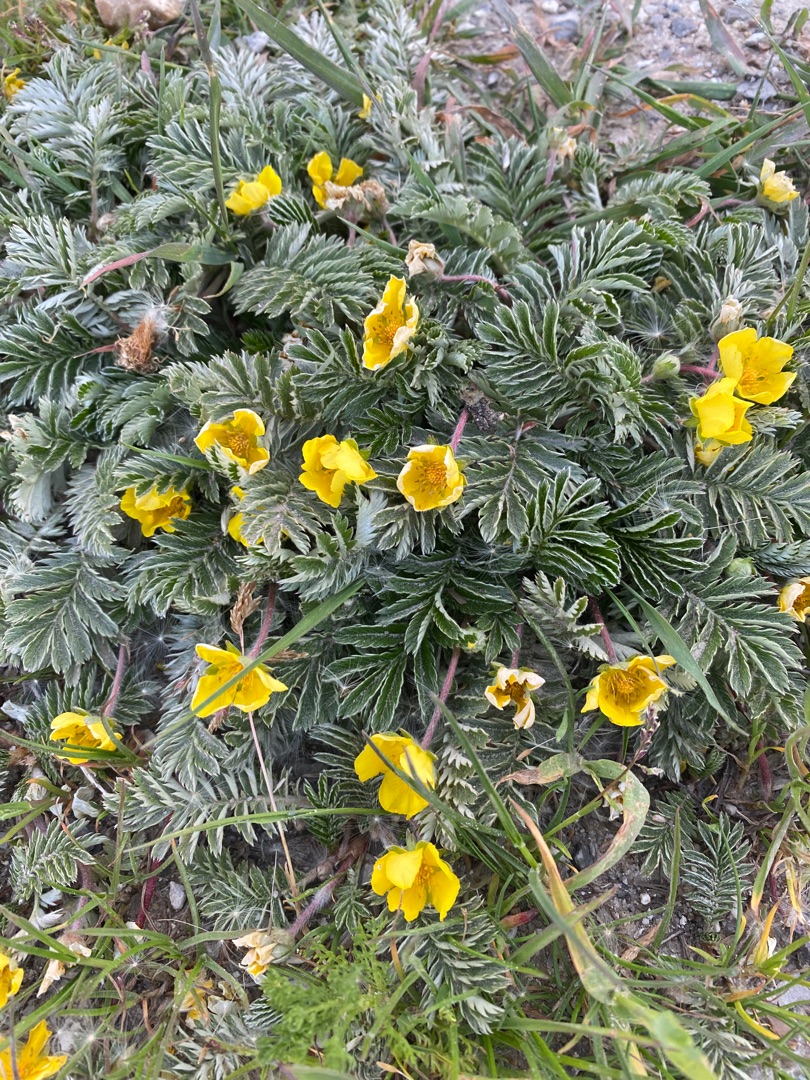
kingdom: Plantae
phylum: Tracheophyta
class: Magnoliopsida
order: Rosales
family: Rosaceae
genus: Argentina
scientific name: Argentina anserina
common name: Gåsepotentil
